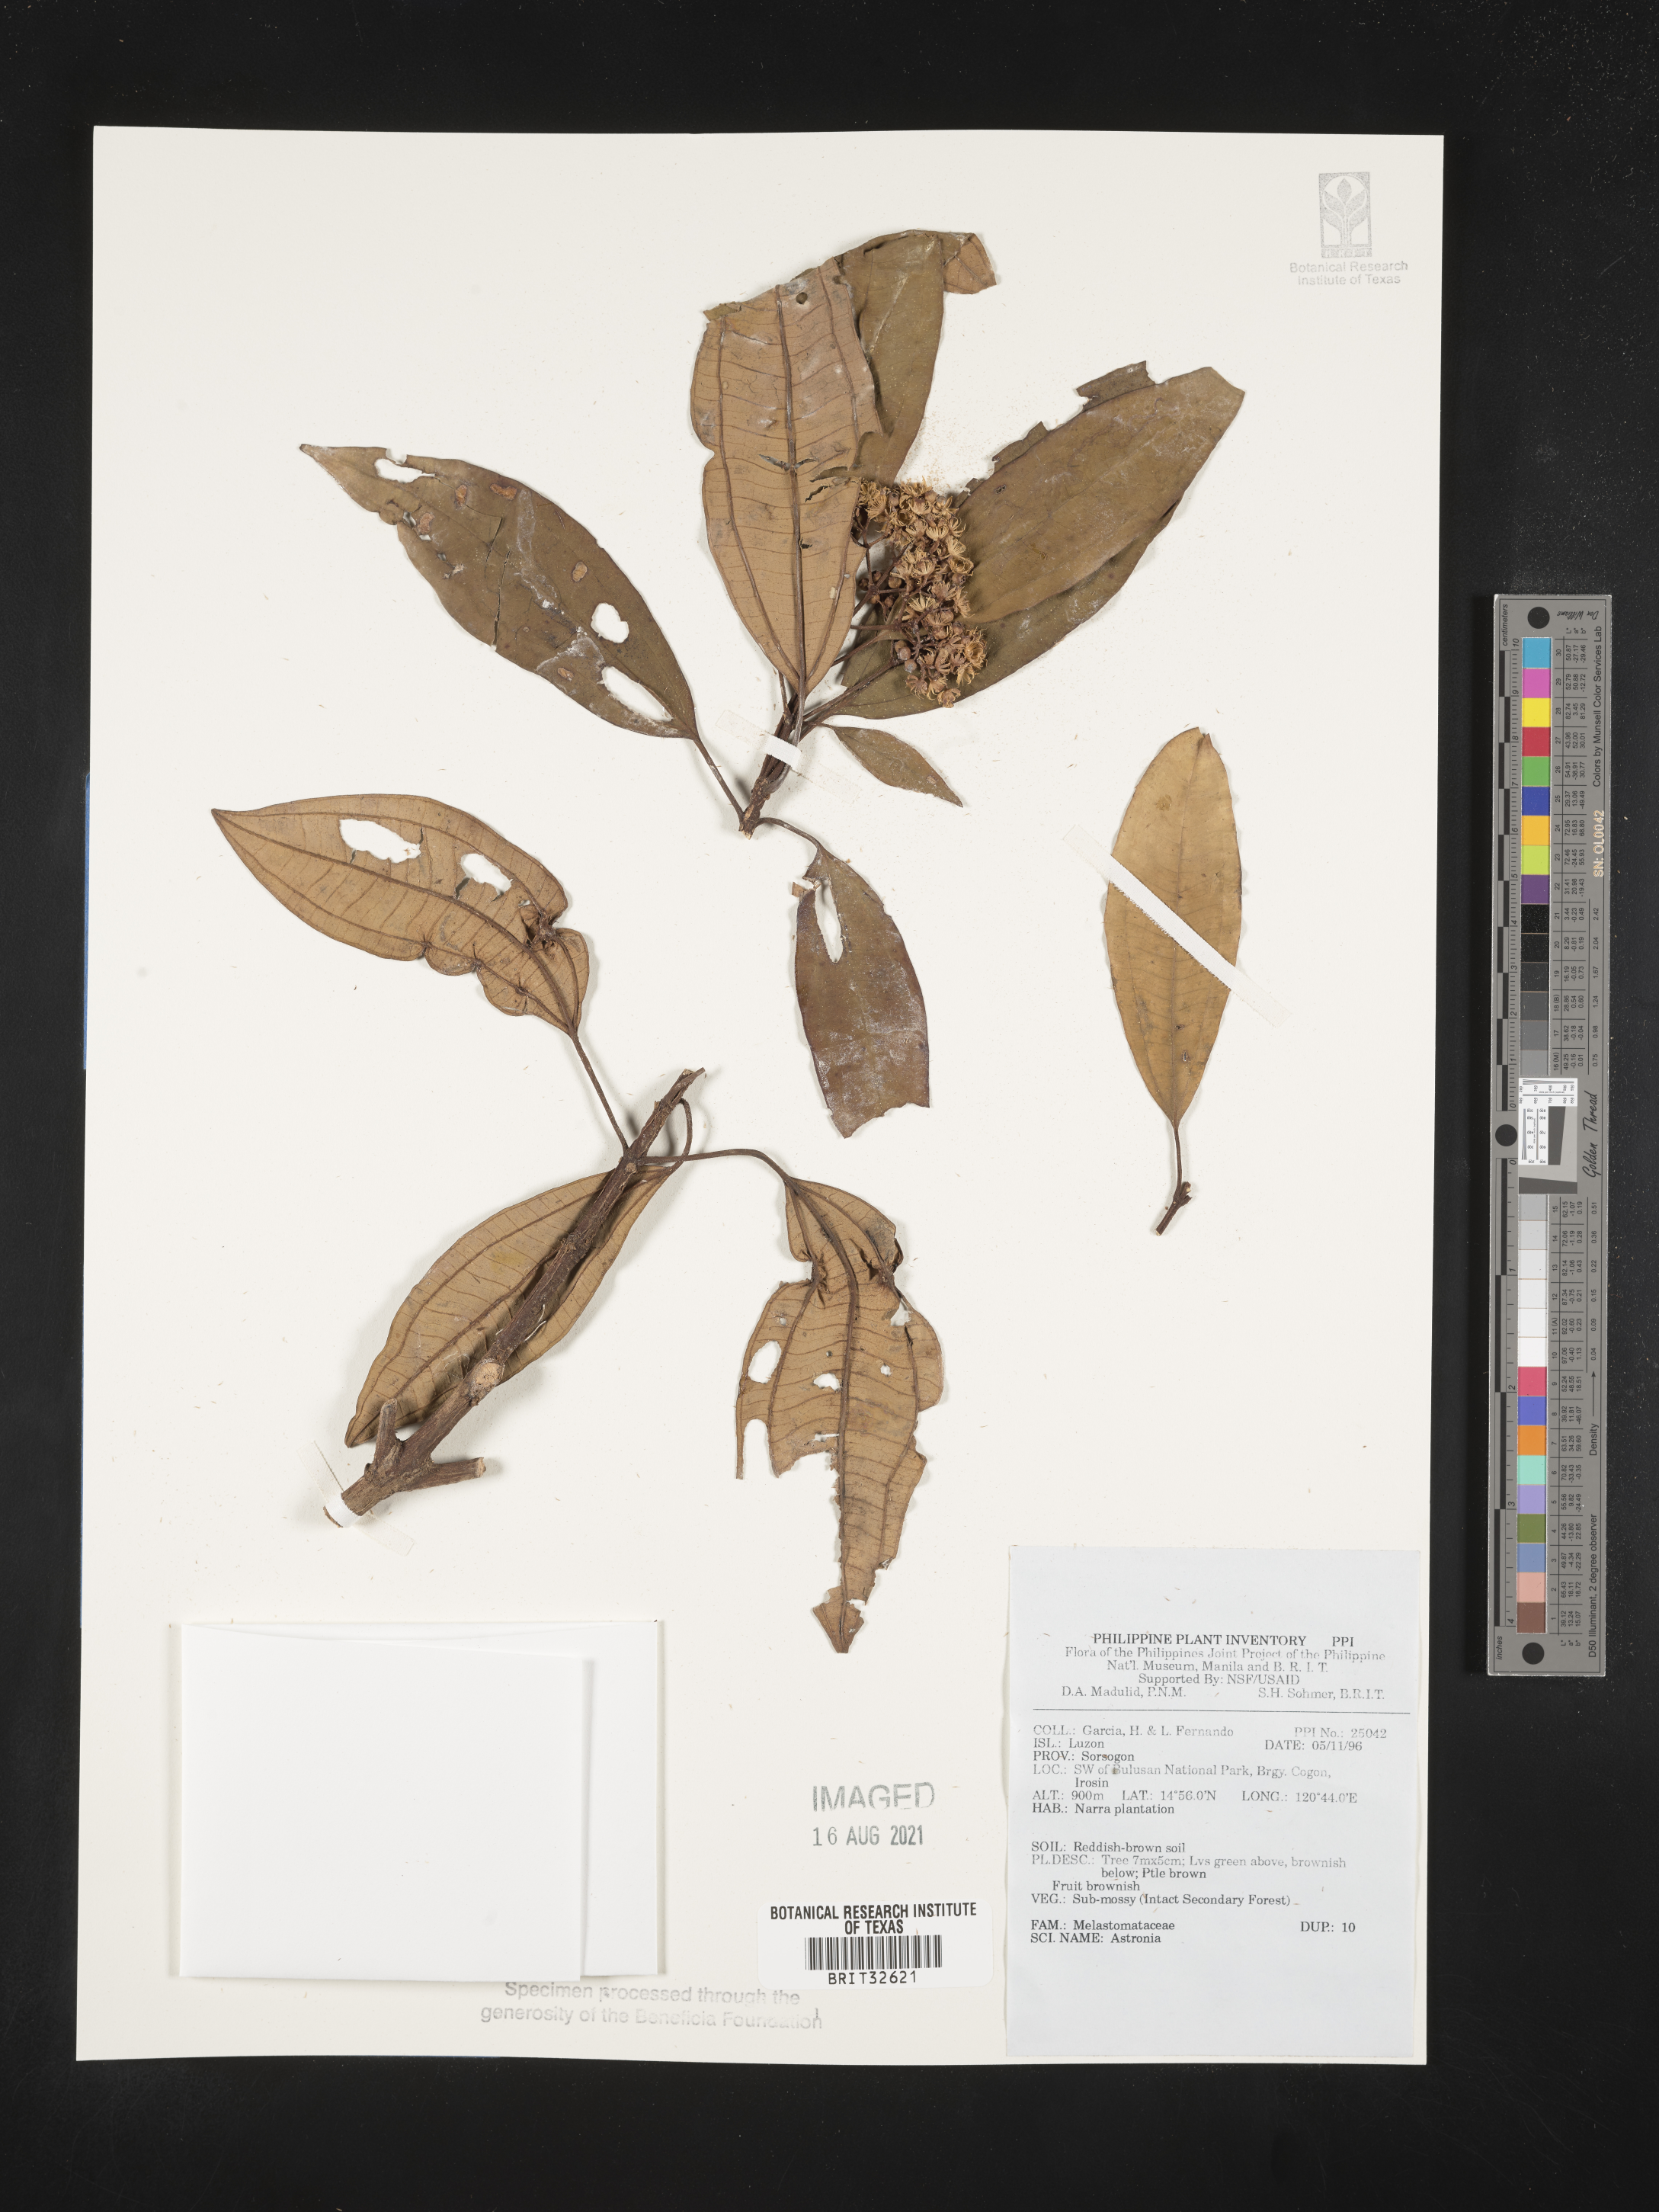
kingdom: Plantae
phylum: Tracheophyta
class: Magnoliopsida
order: Myrtales
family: Melastomataceae
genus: Astronia
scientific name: Astronia
